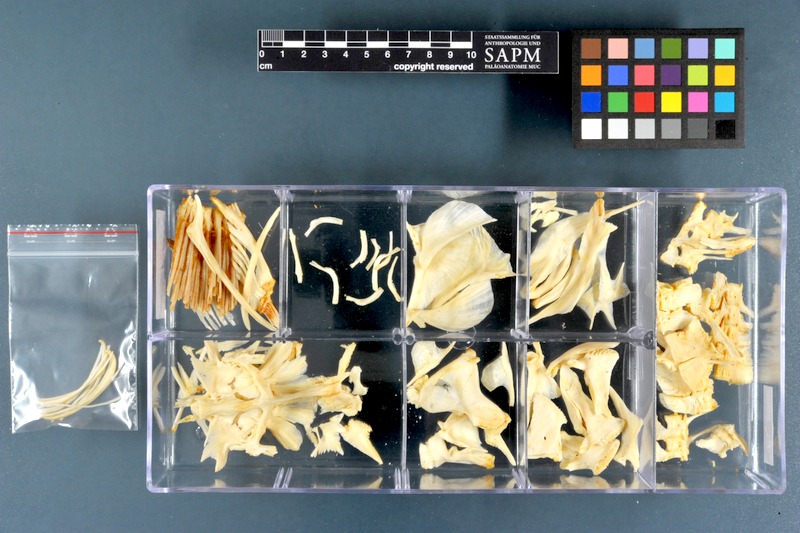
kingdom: Animalia
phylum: Chordata
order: Tetraodontiformes
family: Tetraodontidae
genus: Tetraodon
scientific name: Tetraodon lineatus
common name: Coral butterfly
